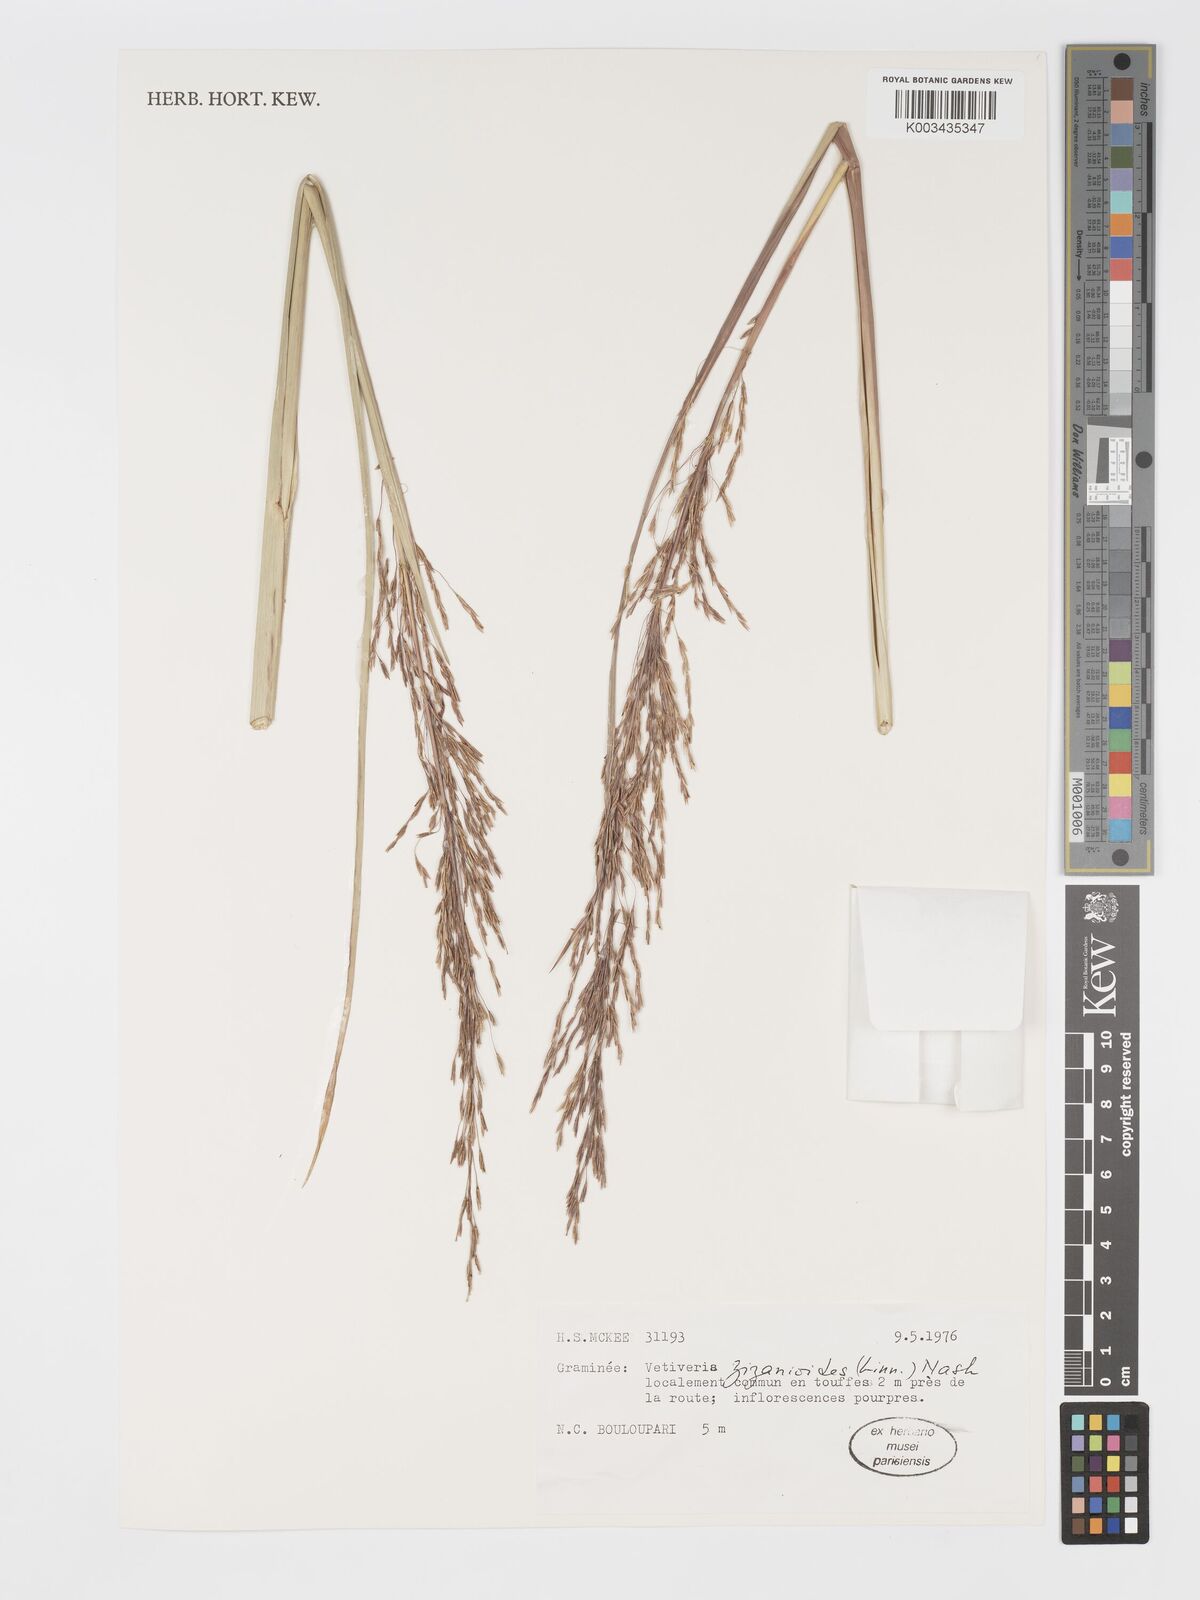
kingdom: Plantae
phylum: Tracheophyta
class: Liliopsida
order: Poales
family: Poaceae
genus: Chrysopogon
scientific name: Chrysopogon zizanioides
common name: False beardgrass
